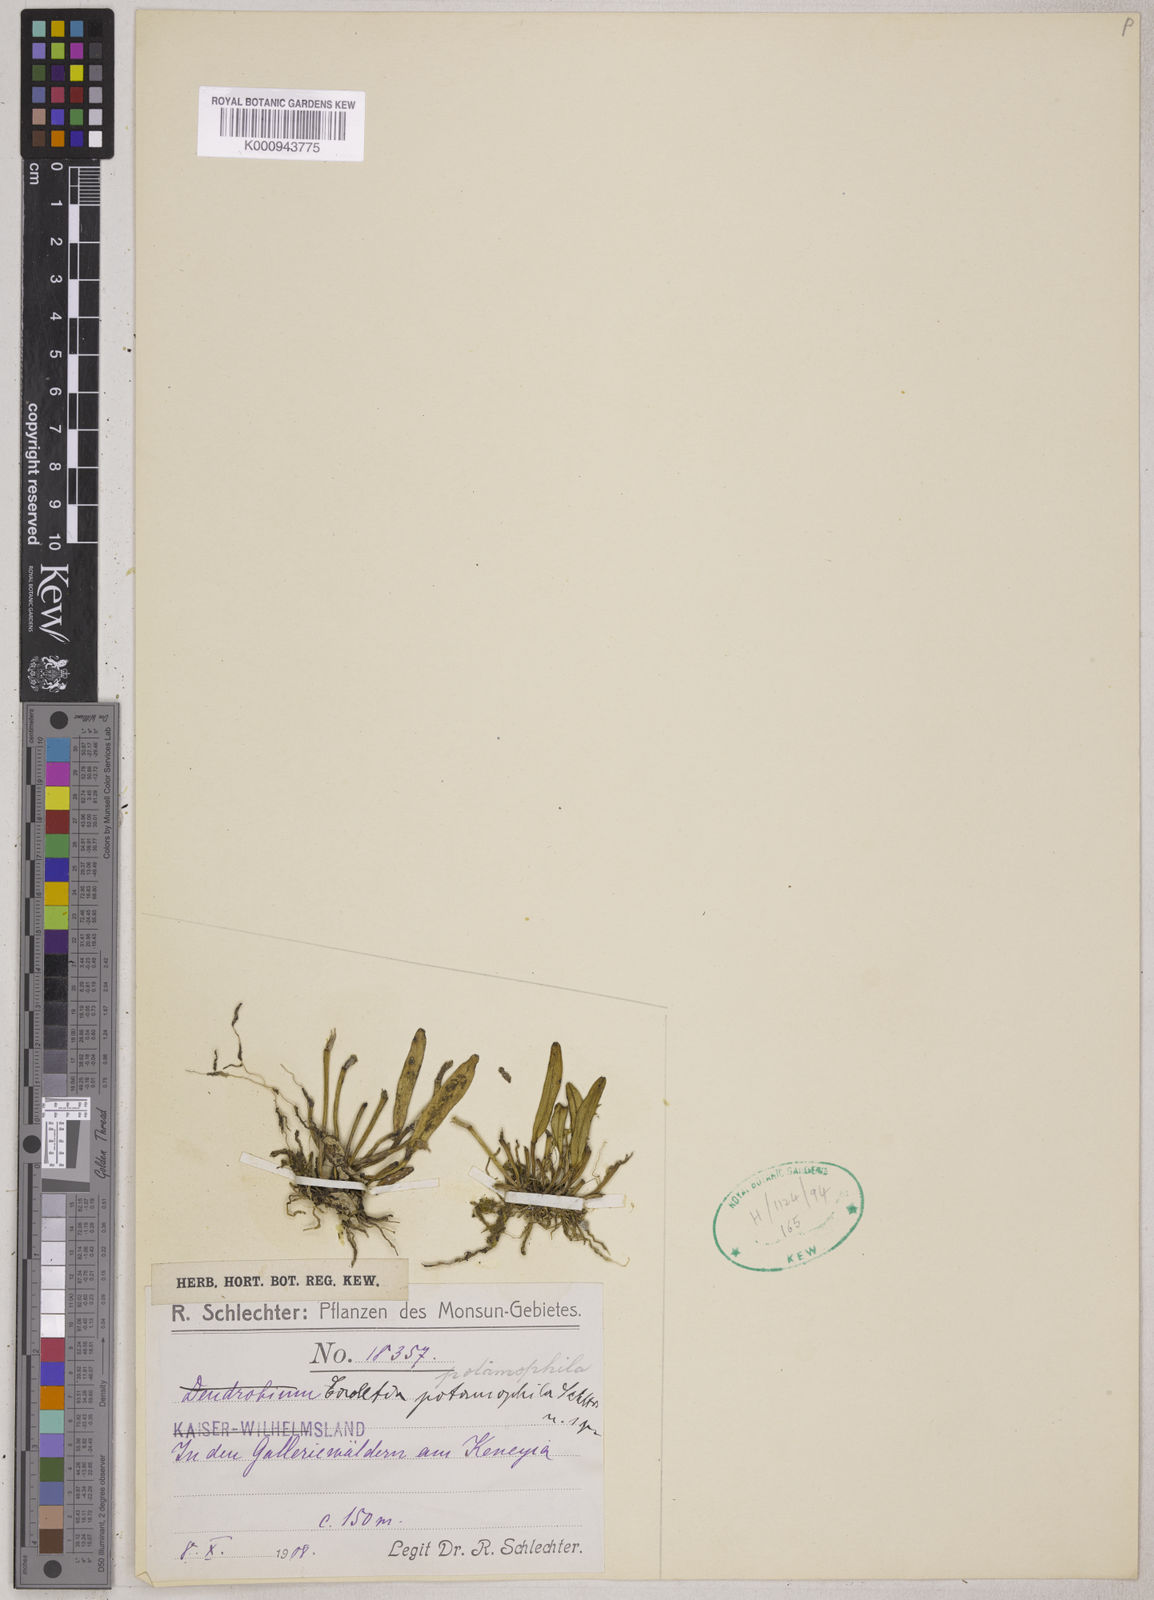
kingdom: Plantae
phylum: Tracheophyta
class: Liliopsida
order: Asparagales
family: Orchidaceae
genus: Dendrobium
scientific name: Dendrobium albiflorum
